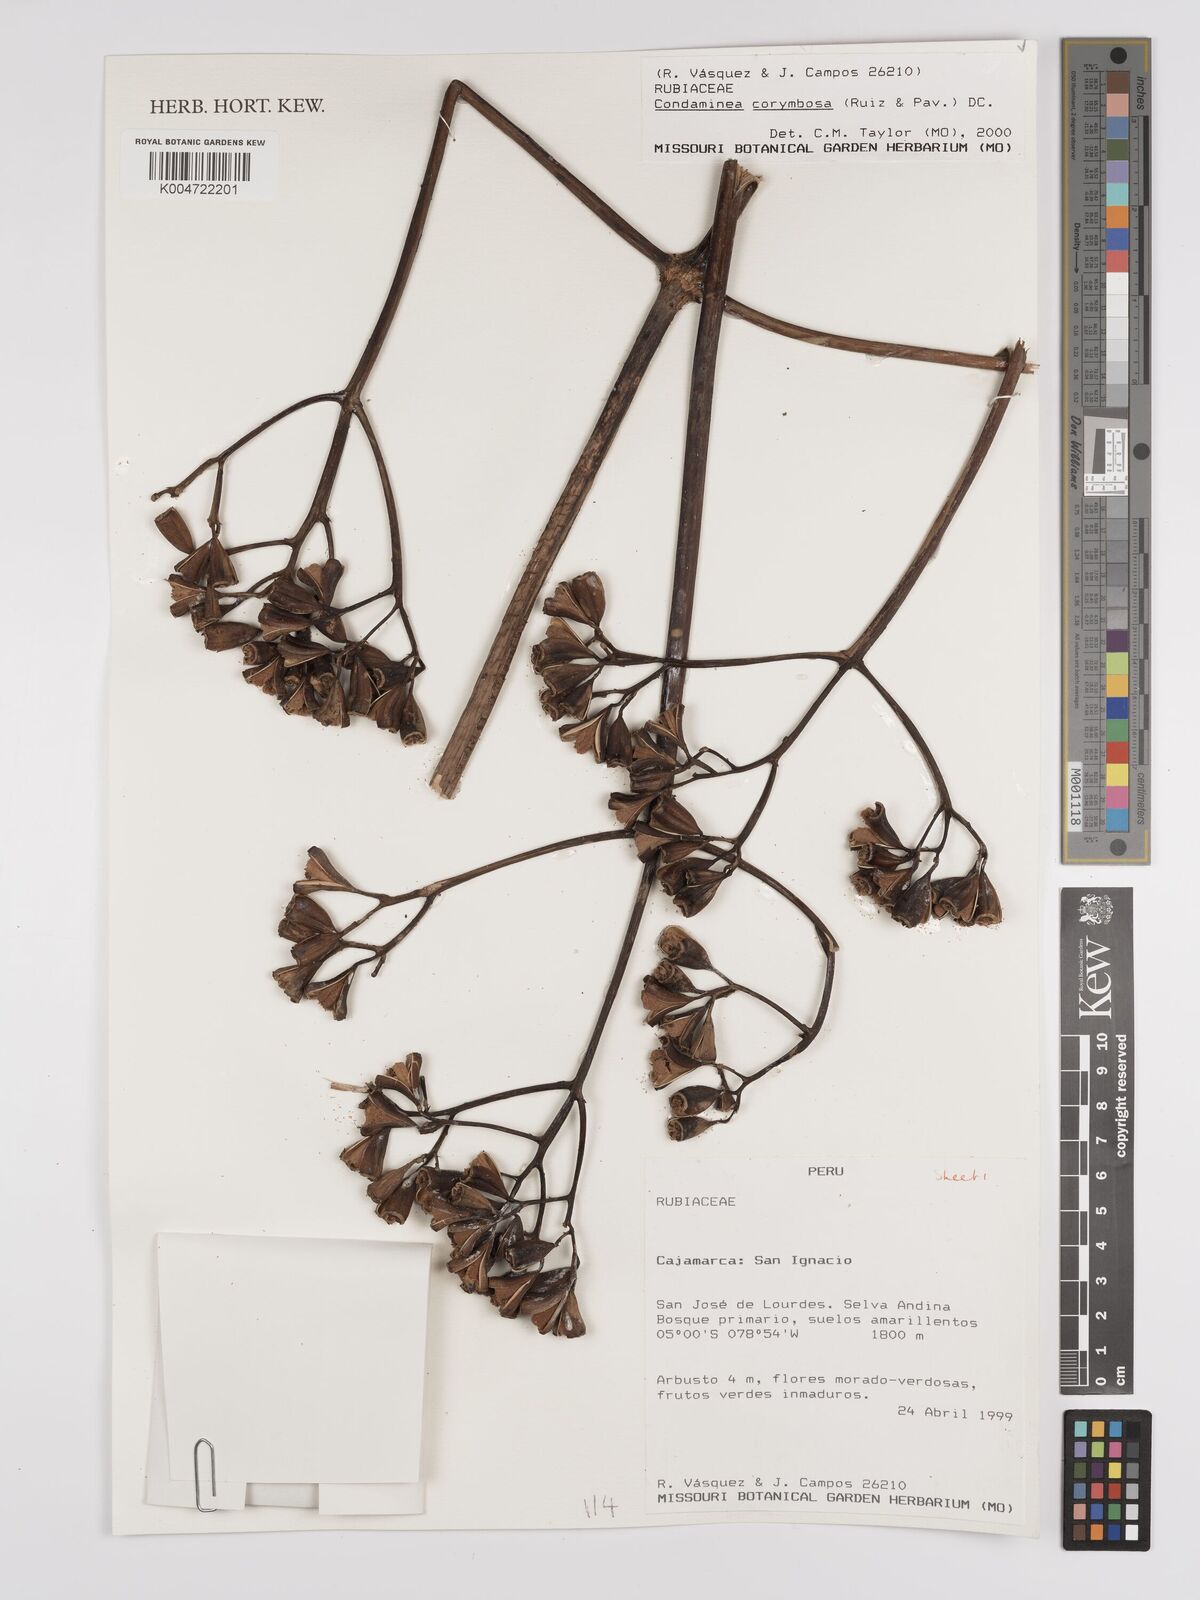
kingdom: Plantae
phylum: Tracheophyta
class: Magnoliopsida
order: Gentianales
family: Rubiaceae
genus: Condaminea
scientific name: Condaminea corymbosa
